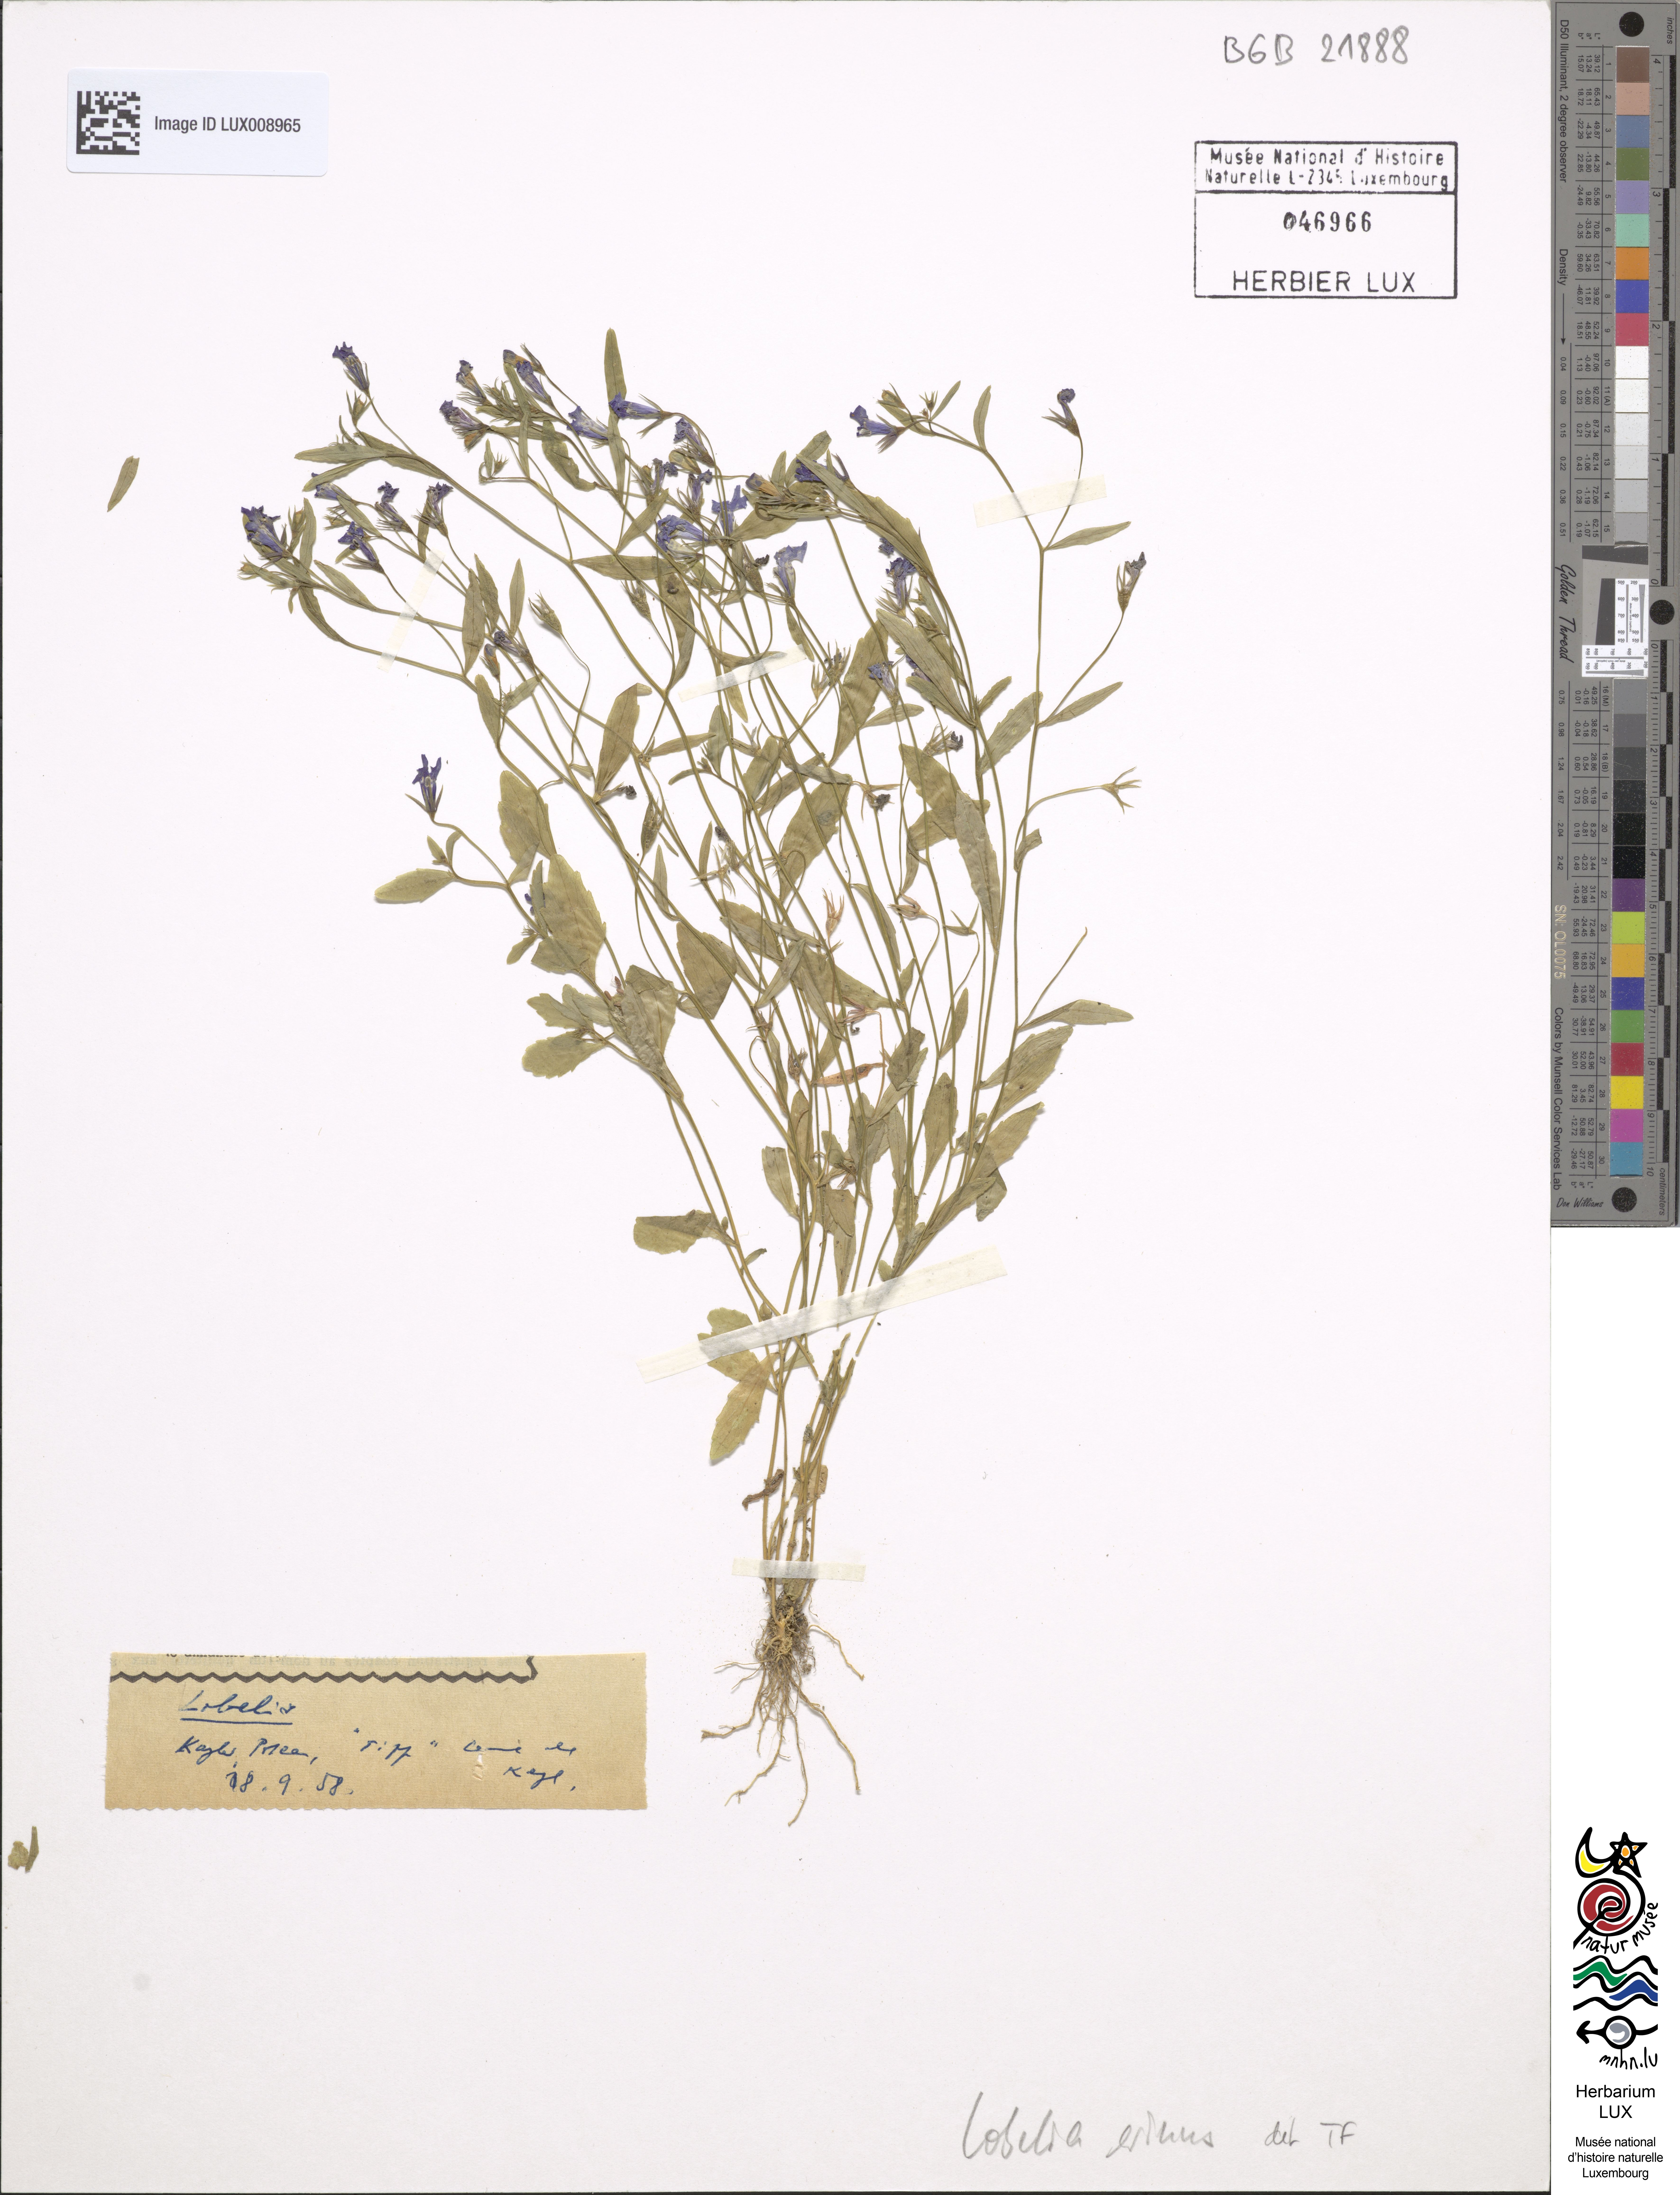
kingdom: Plantae
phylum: Tracheophyta
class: Magnoliopsida
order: Asterales
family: Campanulaceae
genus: Lobelia
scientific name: Lobelia erinus
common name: Edging lobelia
